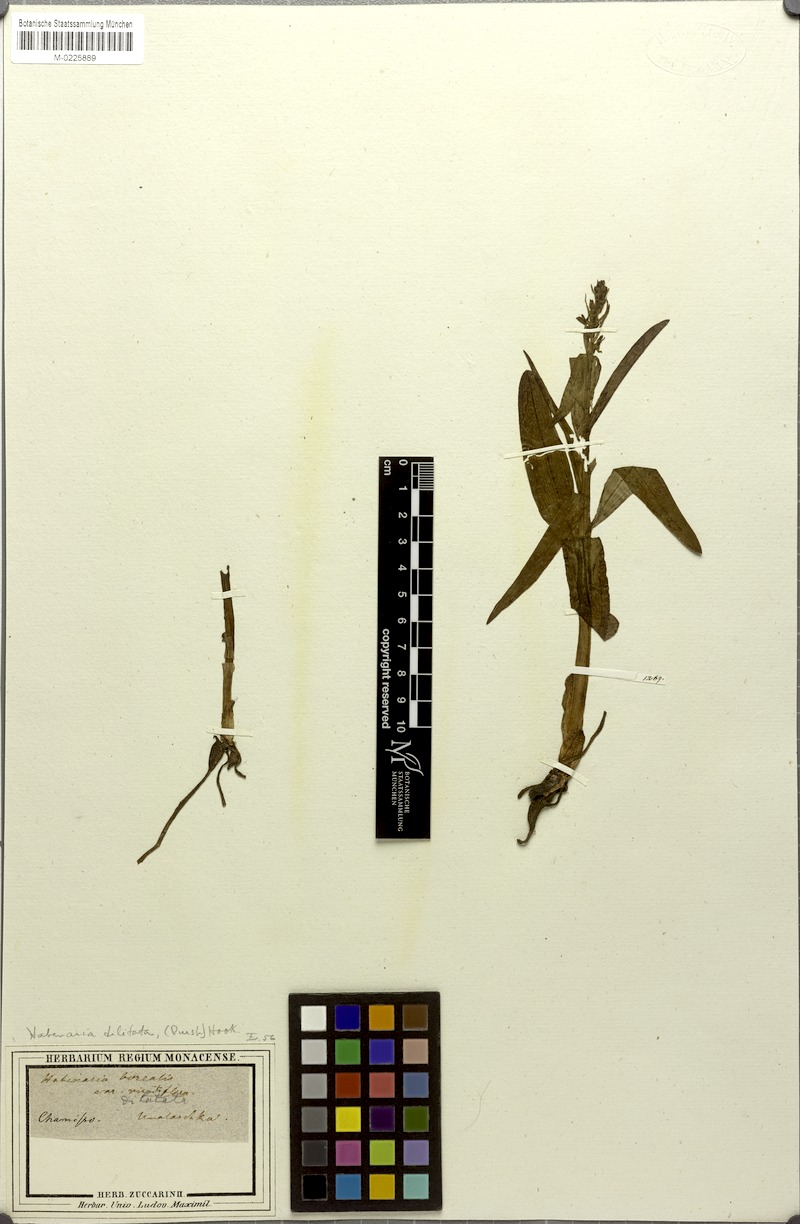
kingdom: Plantae
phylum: Tracheophyta
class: Liliopsida
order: Asparagales
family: Orchidaceae
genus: Platanthera
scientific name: Platanthera stricta
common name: Slender bog orchid
